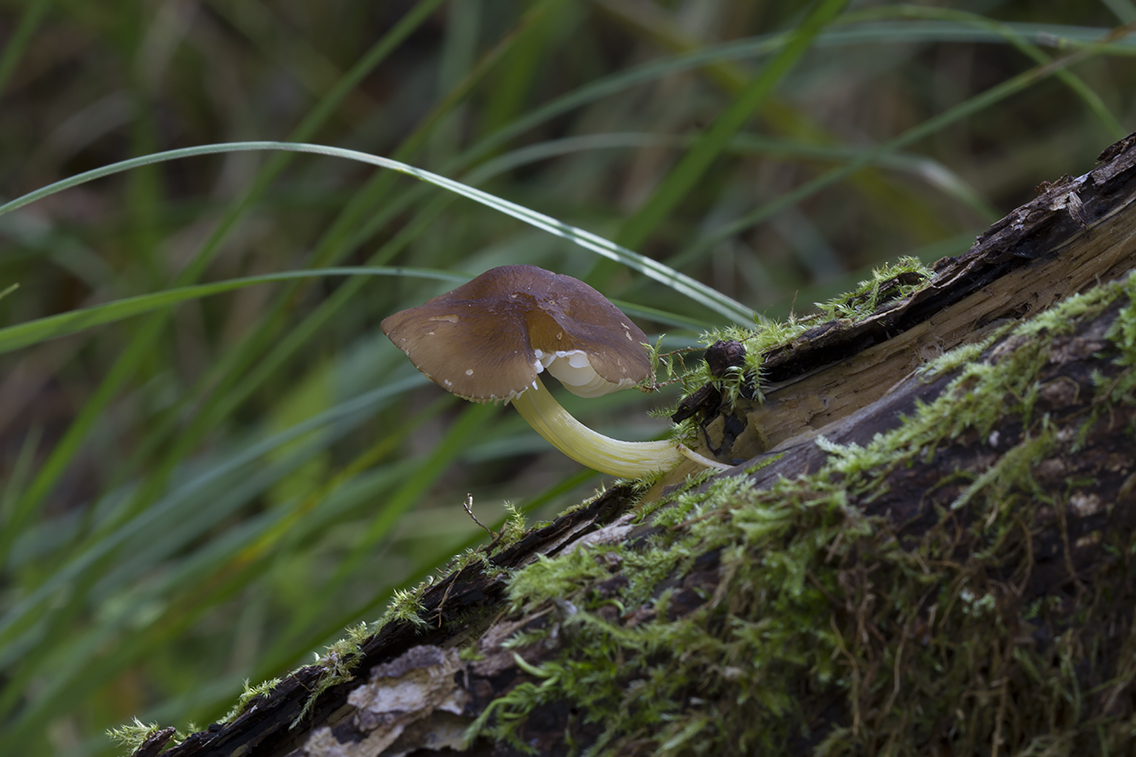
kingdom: Fungi
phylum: Basidiomycota
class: Agaricomycetes
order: Agaricales
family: Pluteaceae
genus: Pluteus
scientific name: Pluteus romellii
